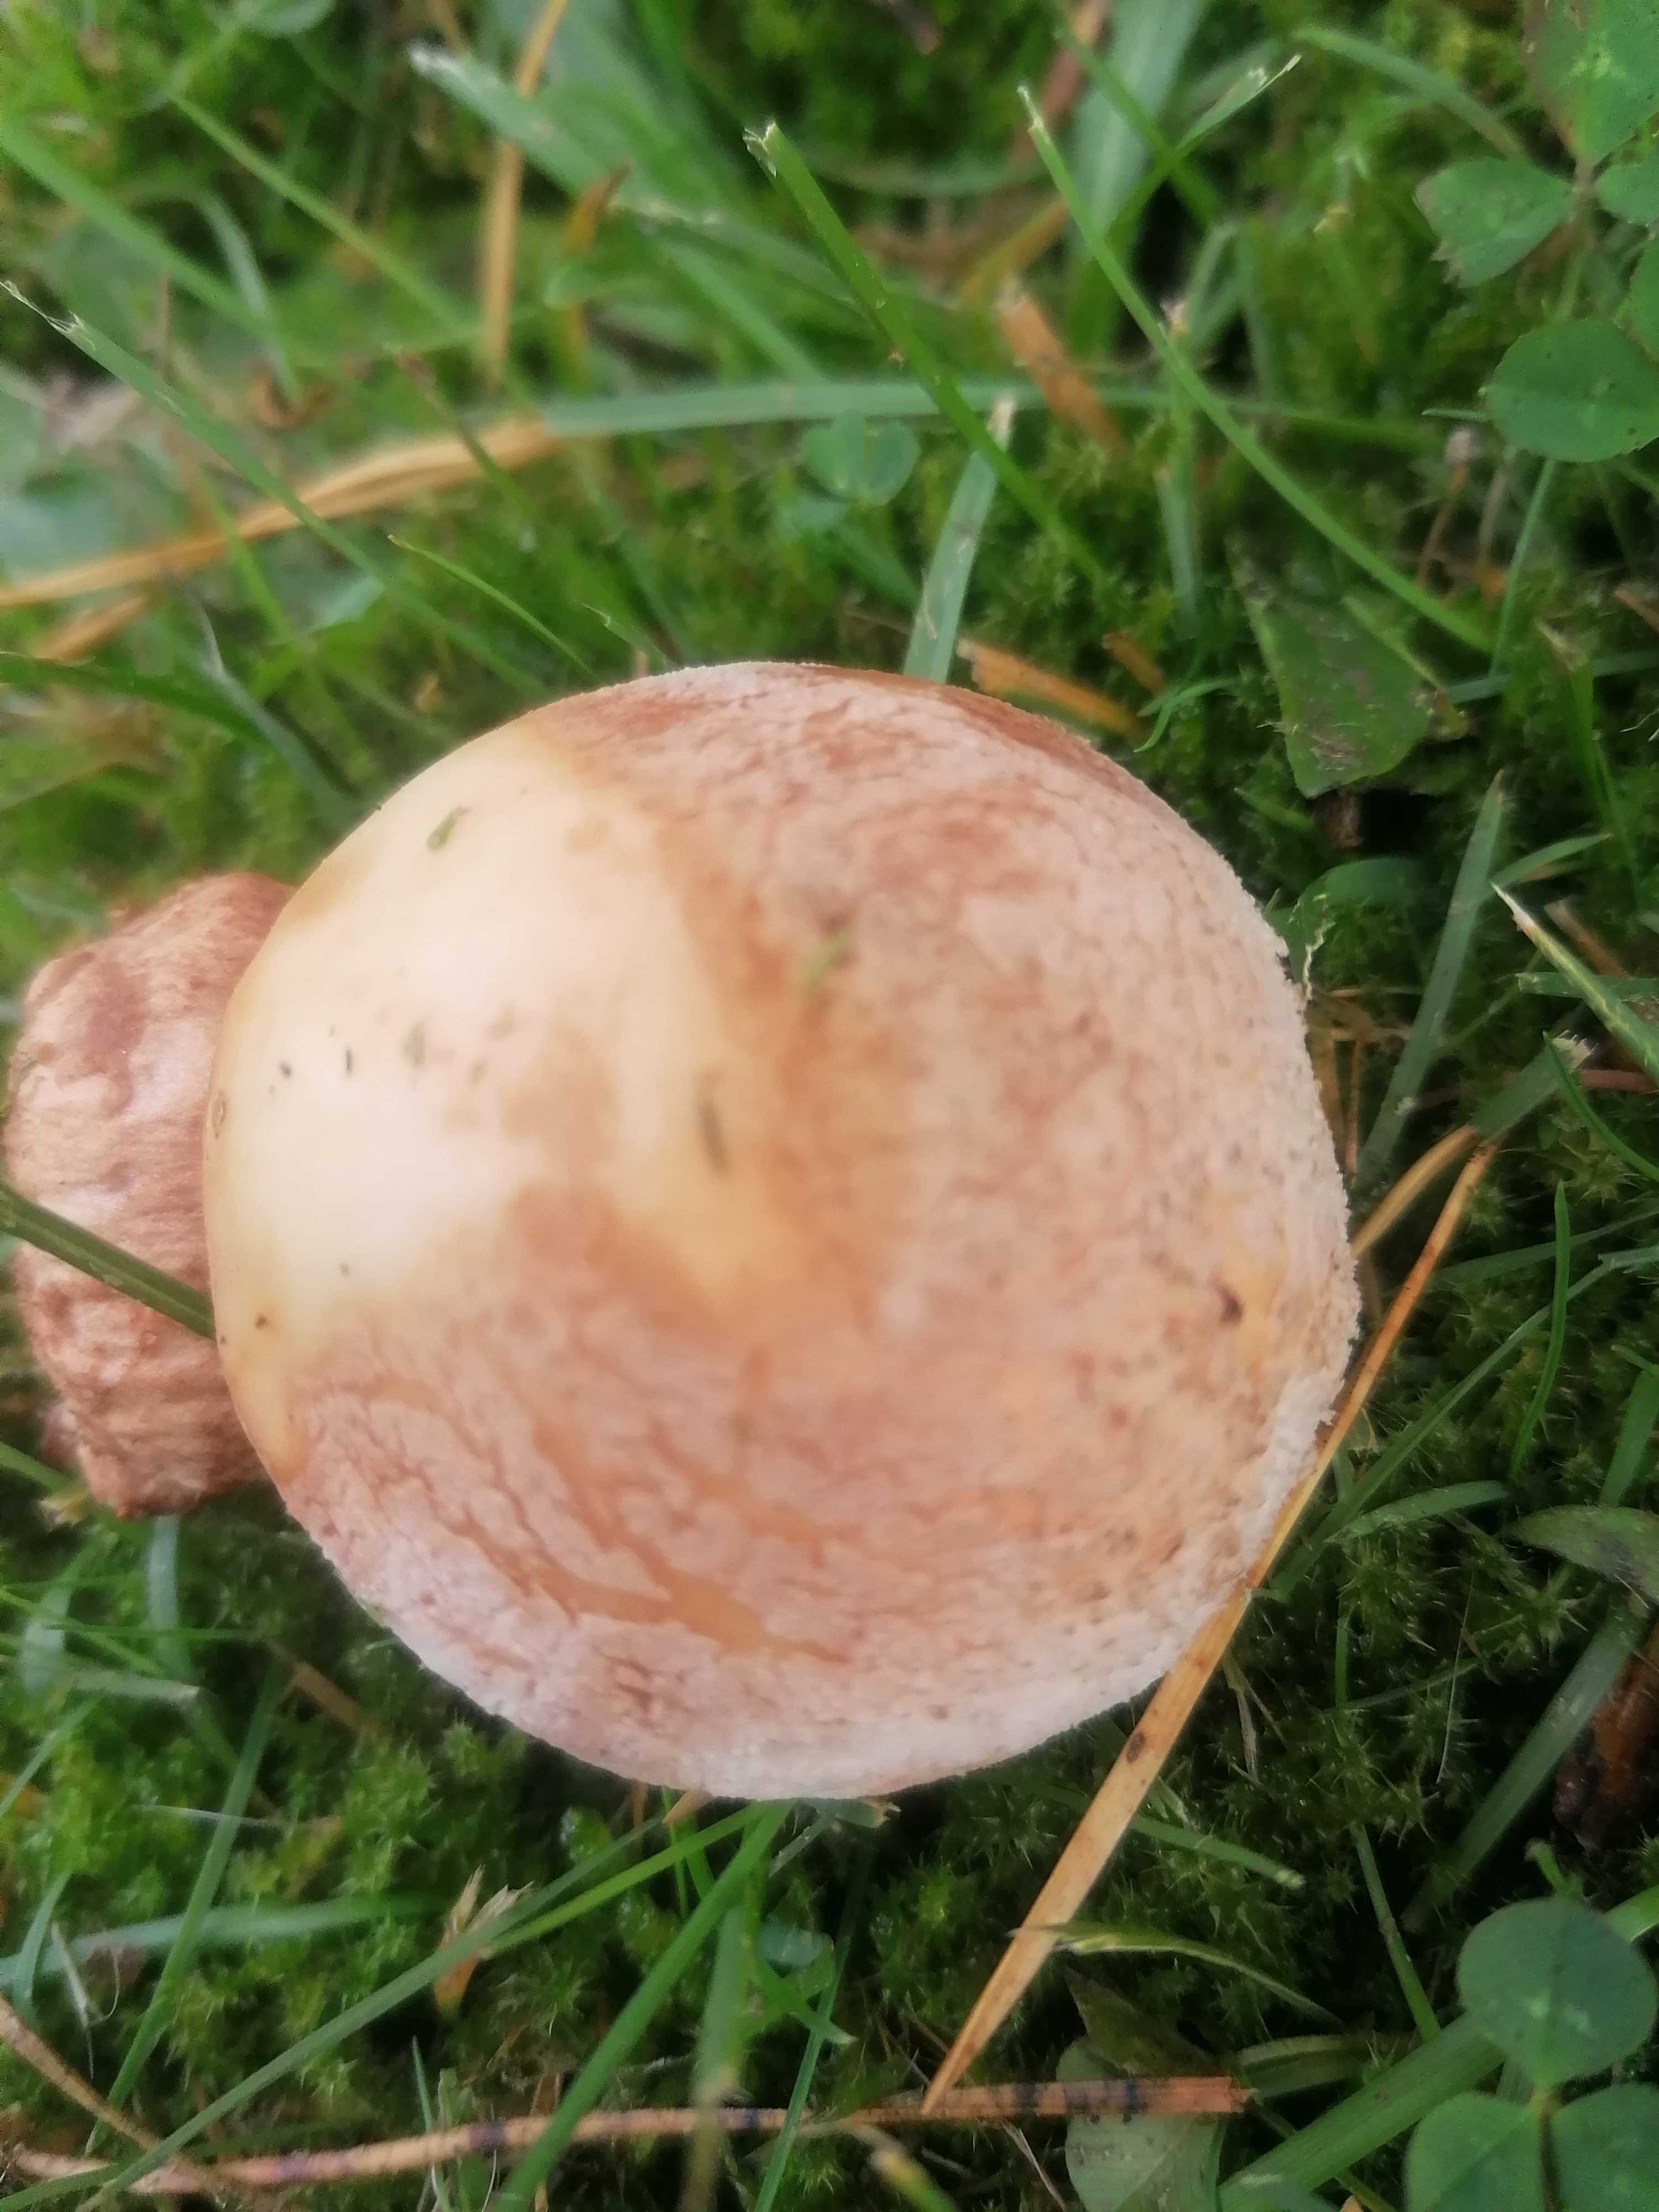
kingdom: Fungi
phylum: Basidiomycota
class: Agaricomycetes
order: Agaricales
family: Amanitaceae
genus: Amanita
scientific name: Amanita rubescens
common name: rødmende fluesvamp
